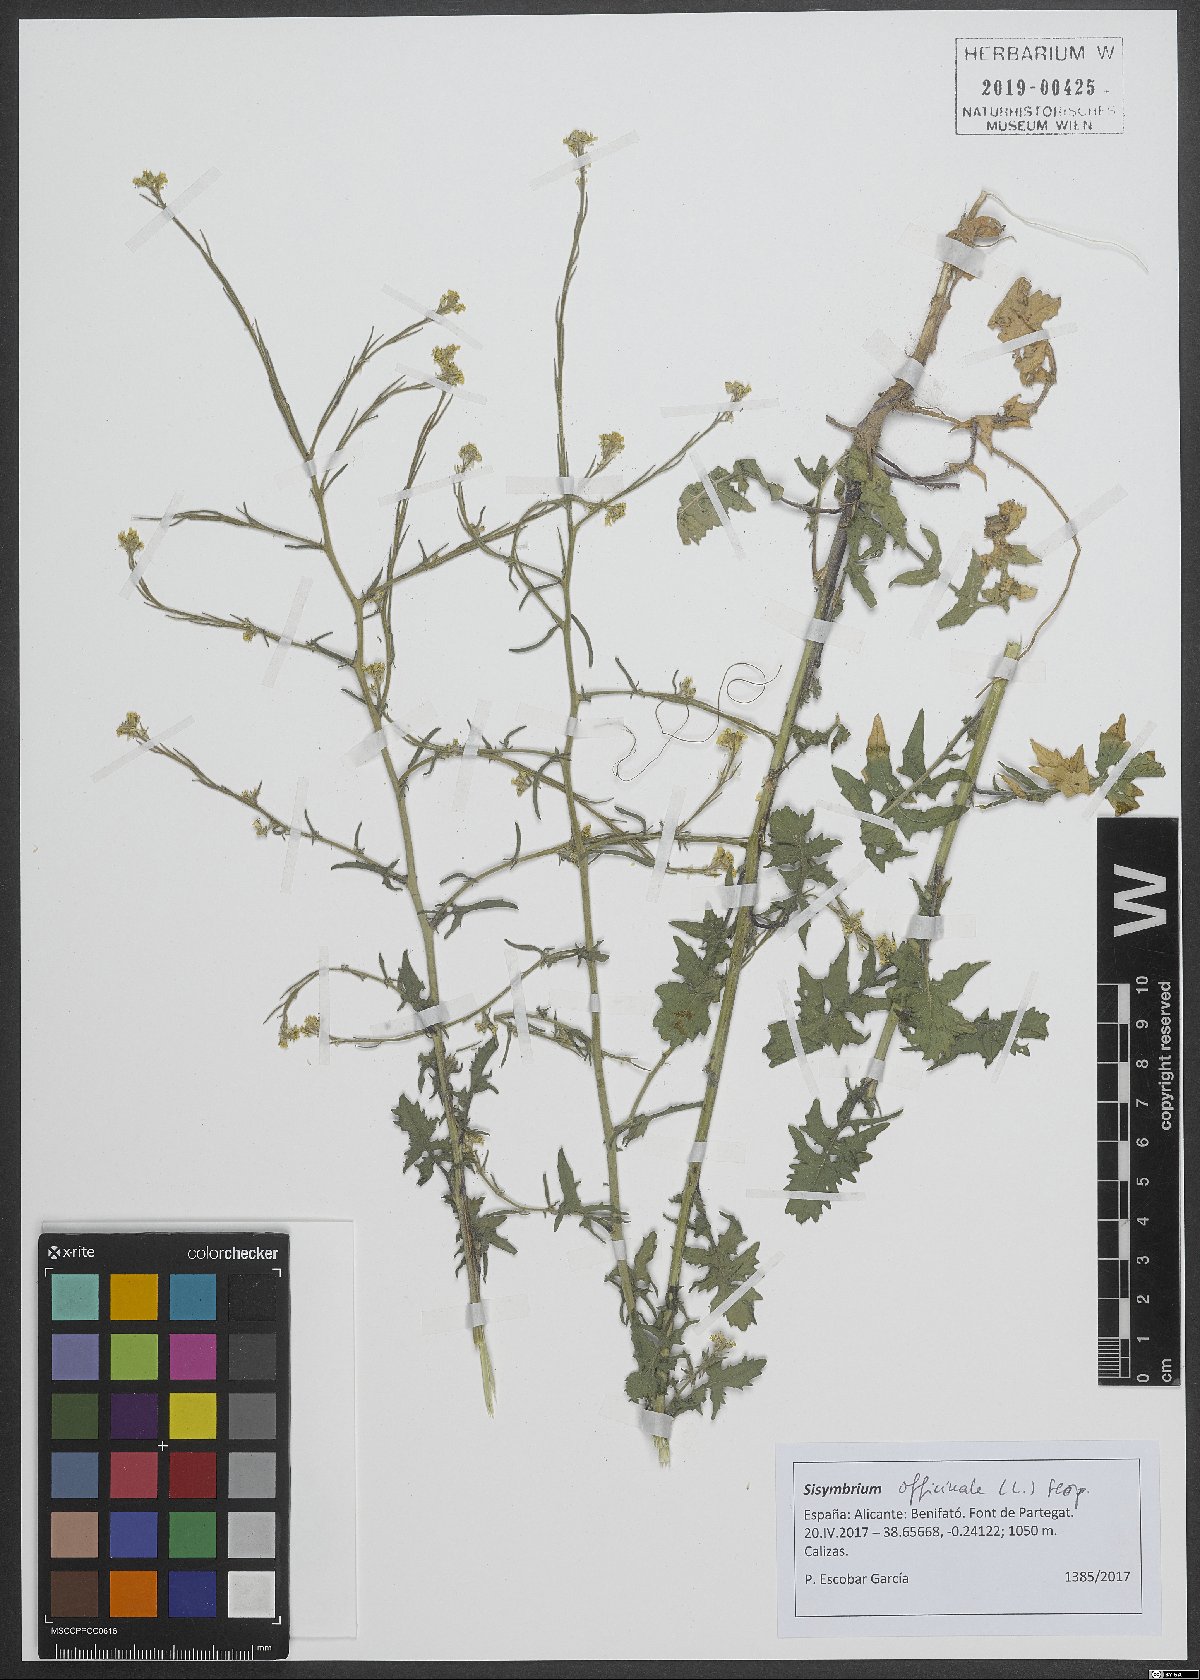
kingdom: Plantae
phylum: Tracheophyta
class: Magnoliopsida
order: Brassicales
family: Brassicaceae
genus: Sisymbrium
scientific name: Sisymbrium officinale
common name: Hedge mustard
